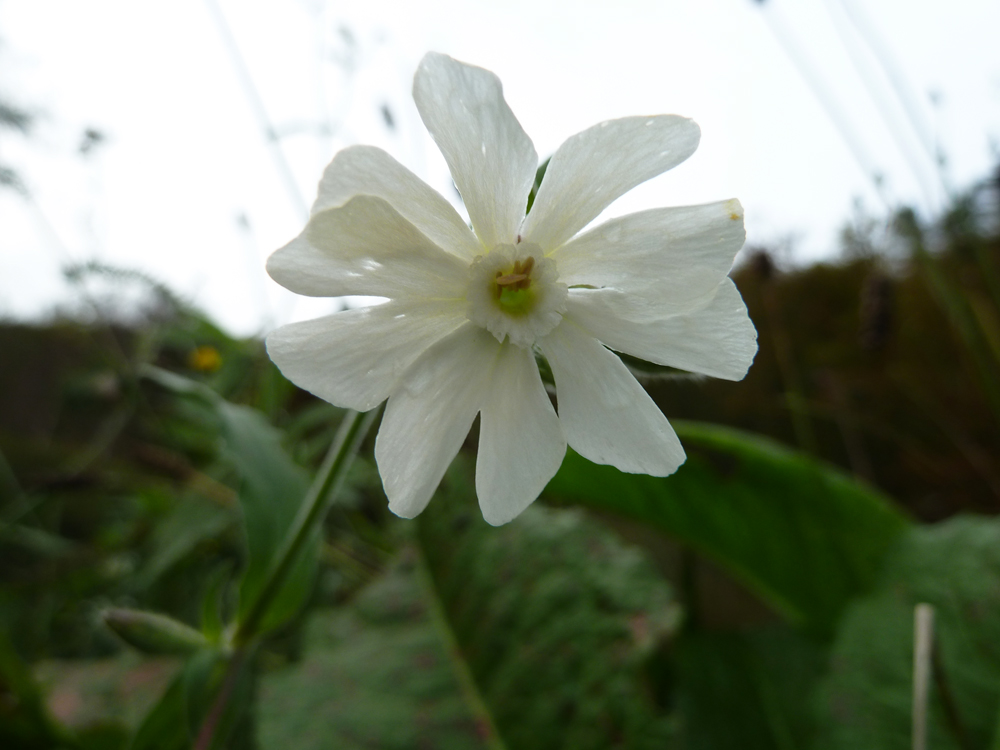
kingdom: Plantae
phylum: Tracheophyta
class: Magnoliopsida
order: Caryophyllales
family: Caryophyllaceae
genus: Silene
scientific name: Silene latifolia
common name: White campion
